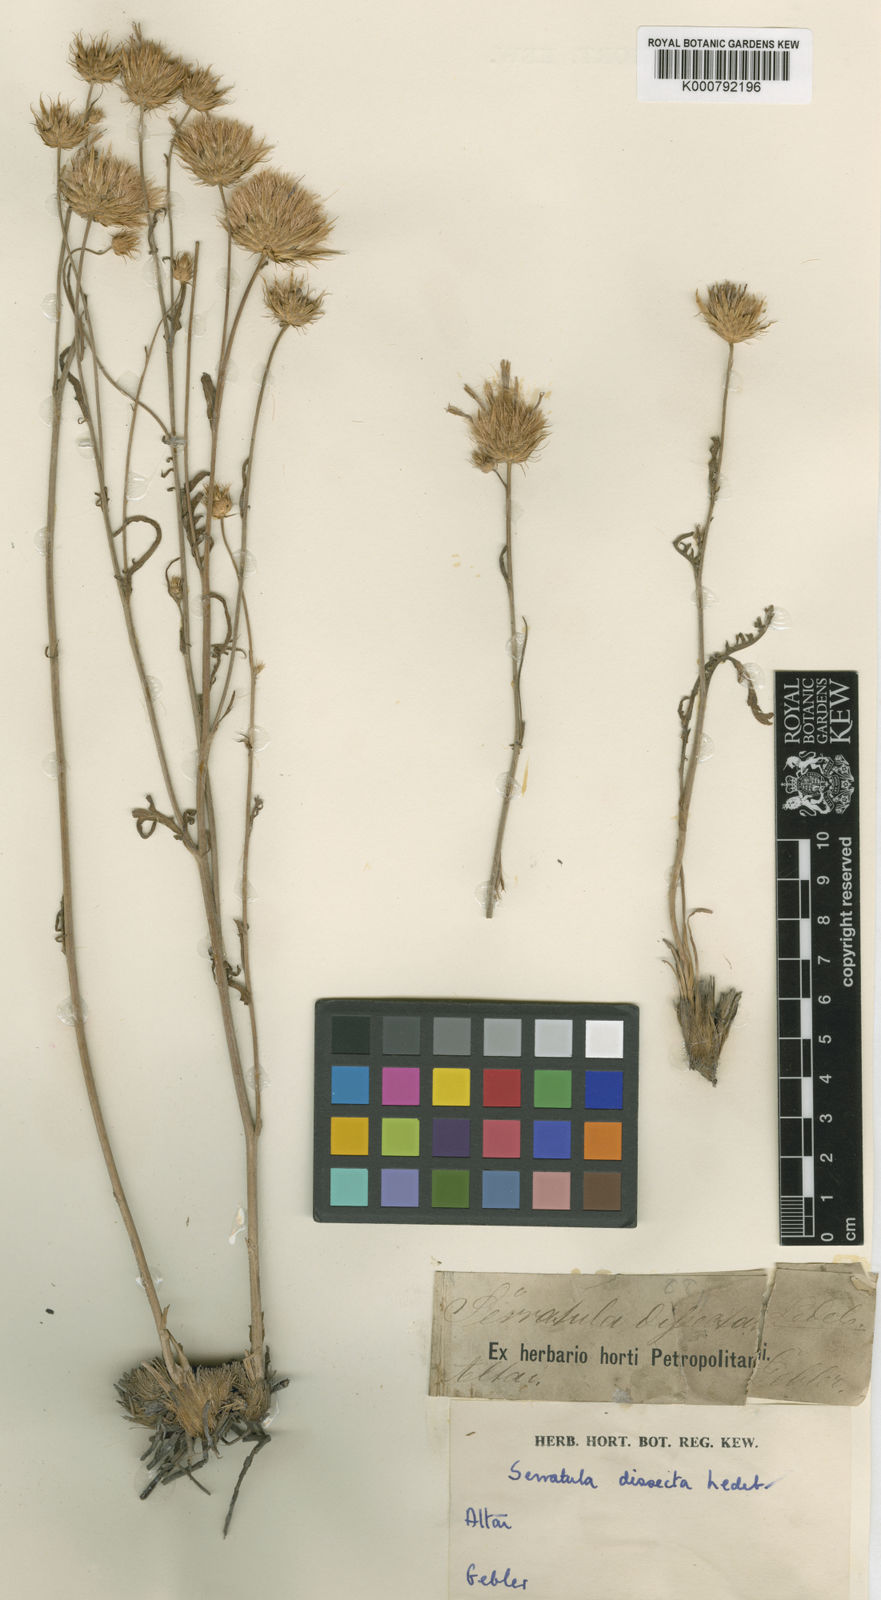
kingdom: Plantae
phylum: Tracheophyta
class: Magnoliopsida
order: Asterales
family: Asteraceae
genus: Klasea
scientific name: Klasea dissecta
